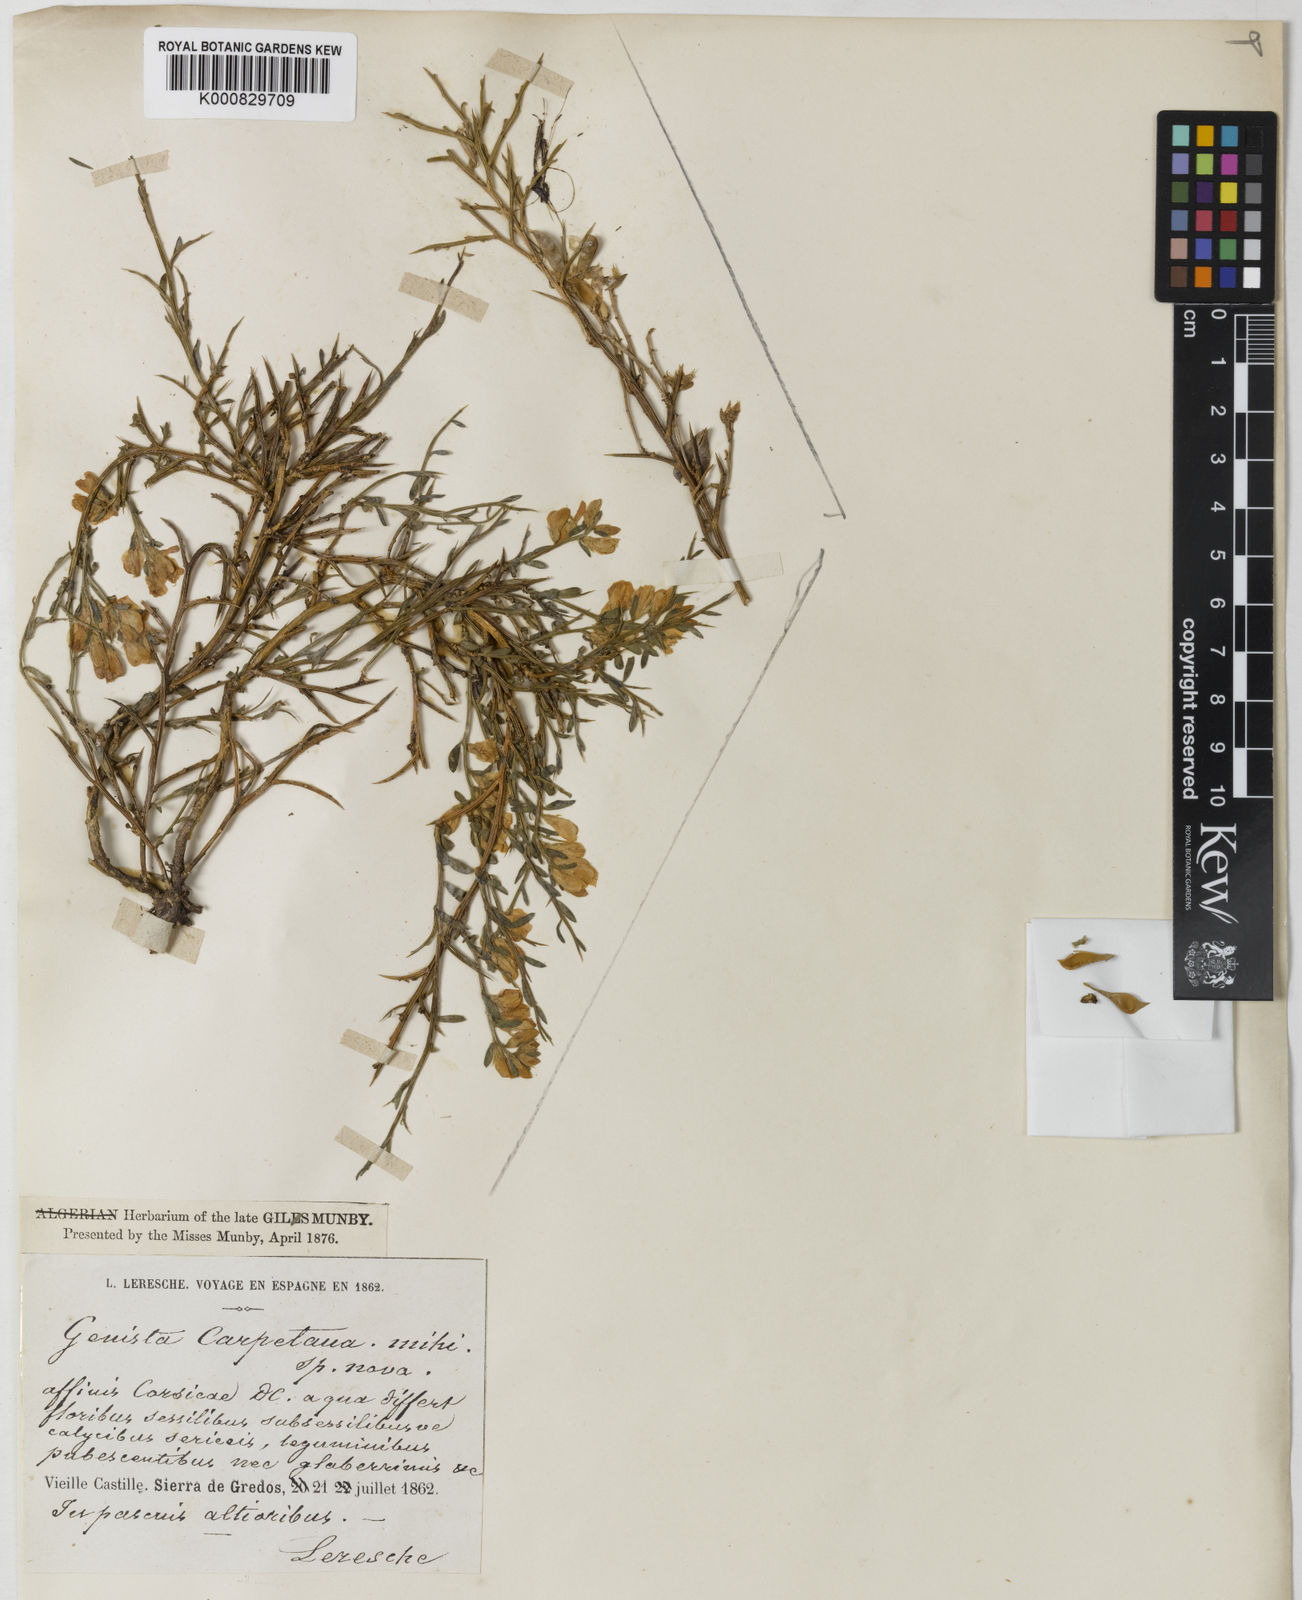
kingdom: Plantae
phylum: Tracheophyta
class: Magnoliopsida
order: Fabales
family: Fabaceae
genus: Genista
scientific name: Genista
